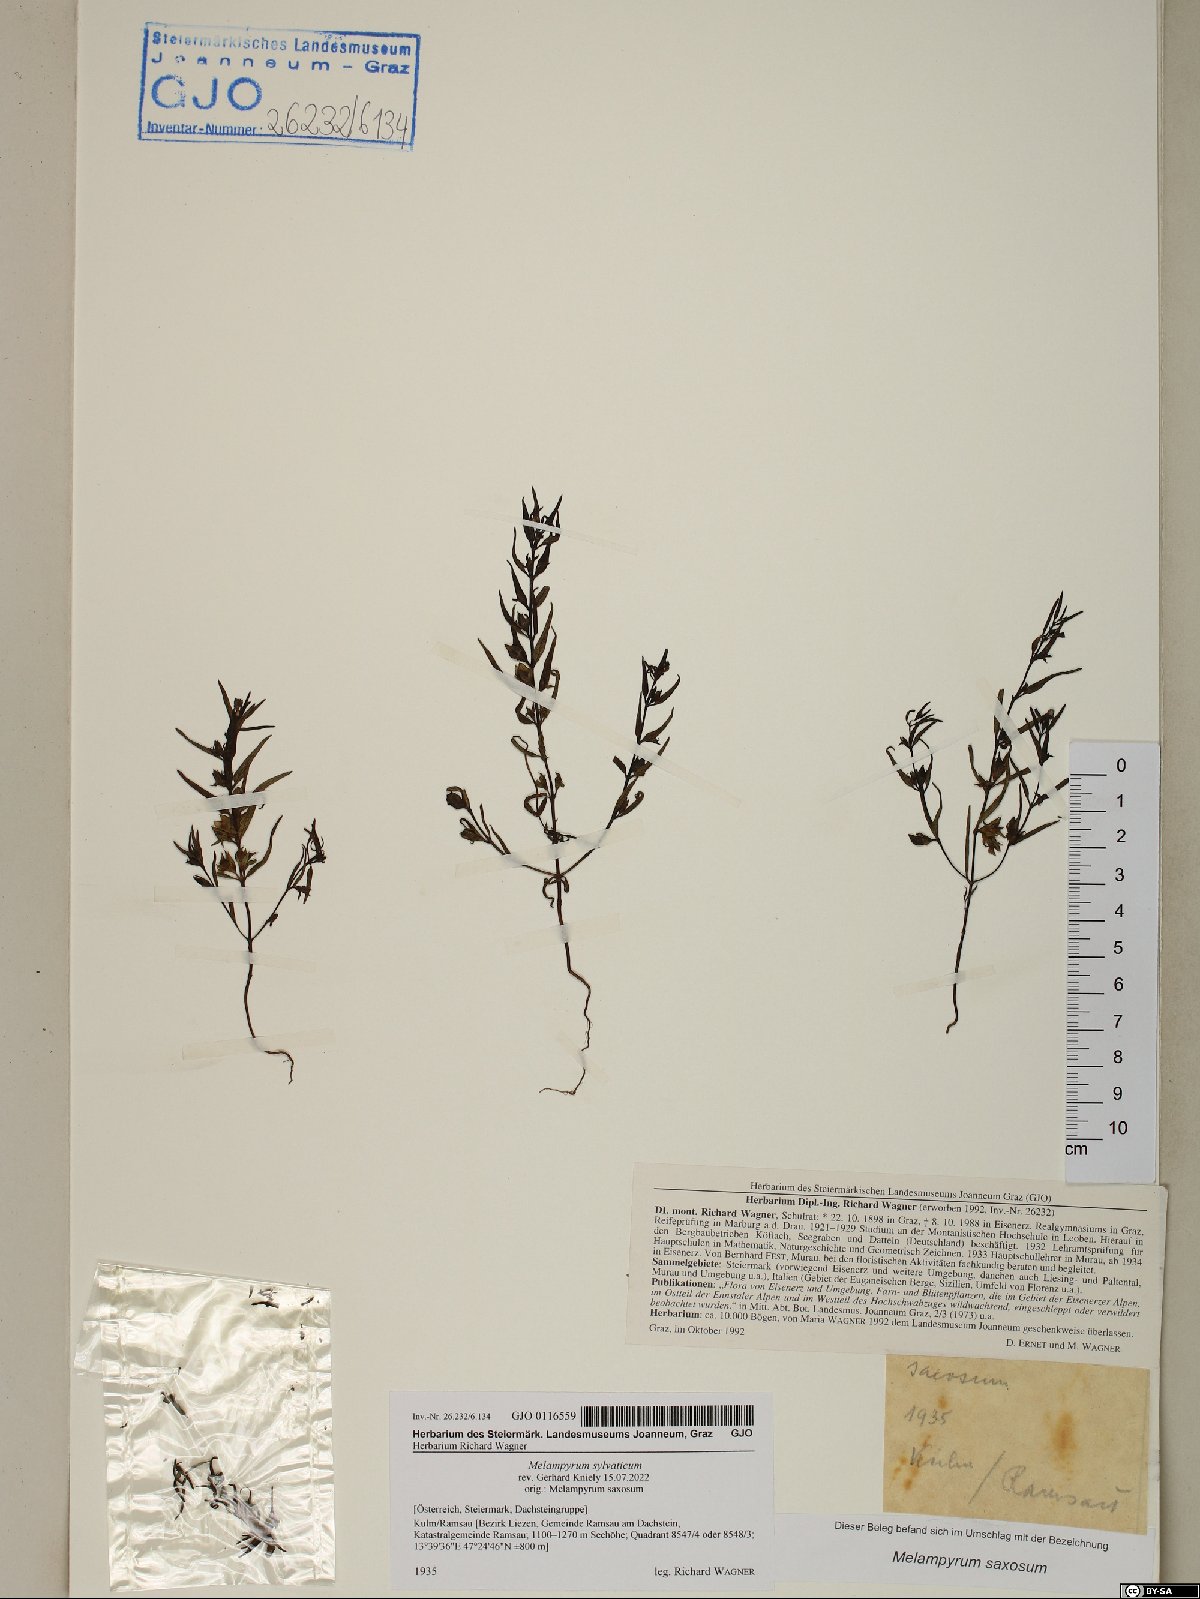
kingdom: Plantae
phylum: Tracheophyta
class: Magnoliopsida
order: Lamiales
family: Orobanchaceae
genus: Melampyrum
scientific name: Melampyrum sylvaticum
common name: Small cow-wheat
